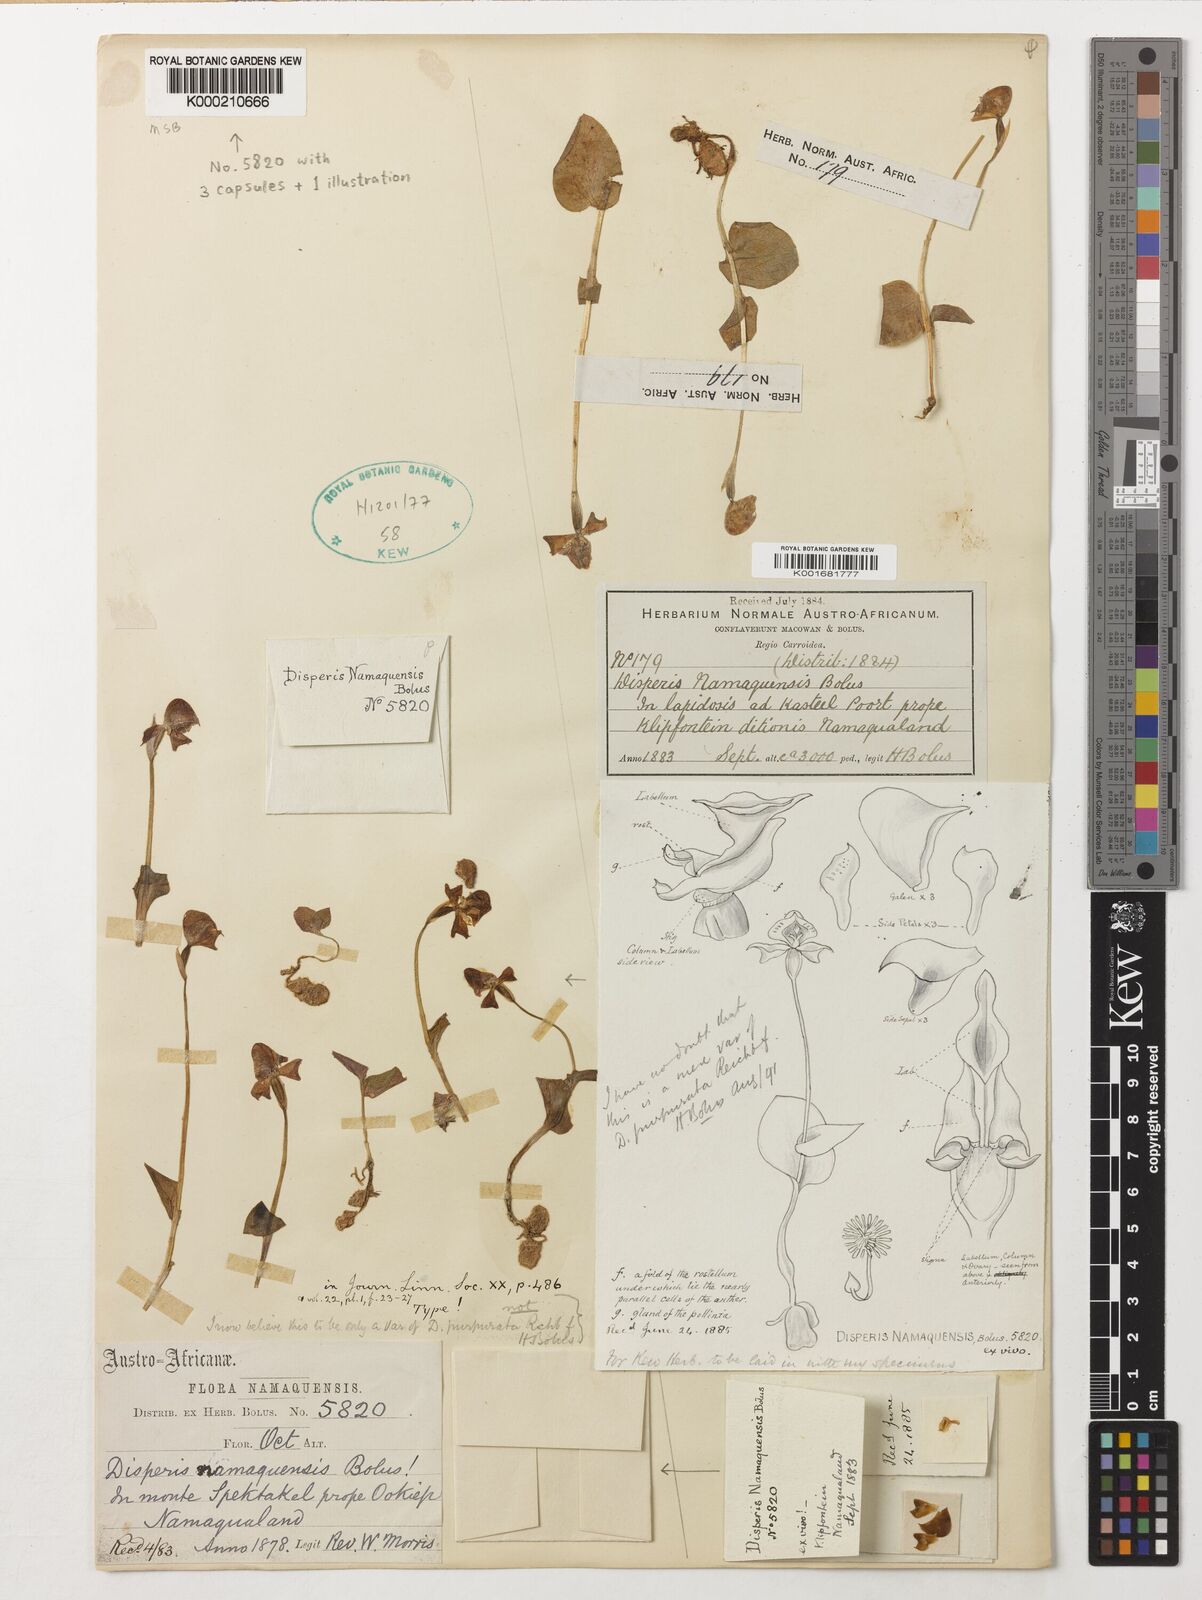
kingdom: Plantae
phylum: Tracheophyta
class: Liliopsida
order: Asparagales
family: Orchidaceae
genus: Disperis
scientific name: Disperis purpurata
